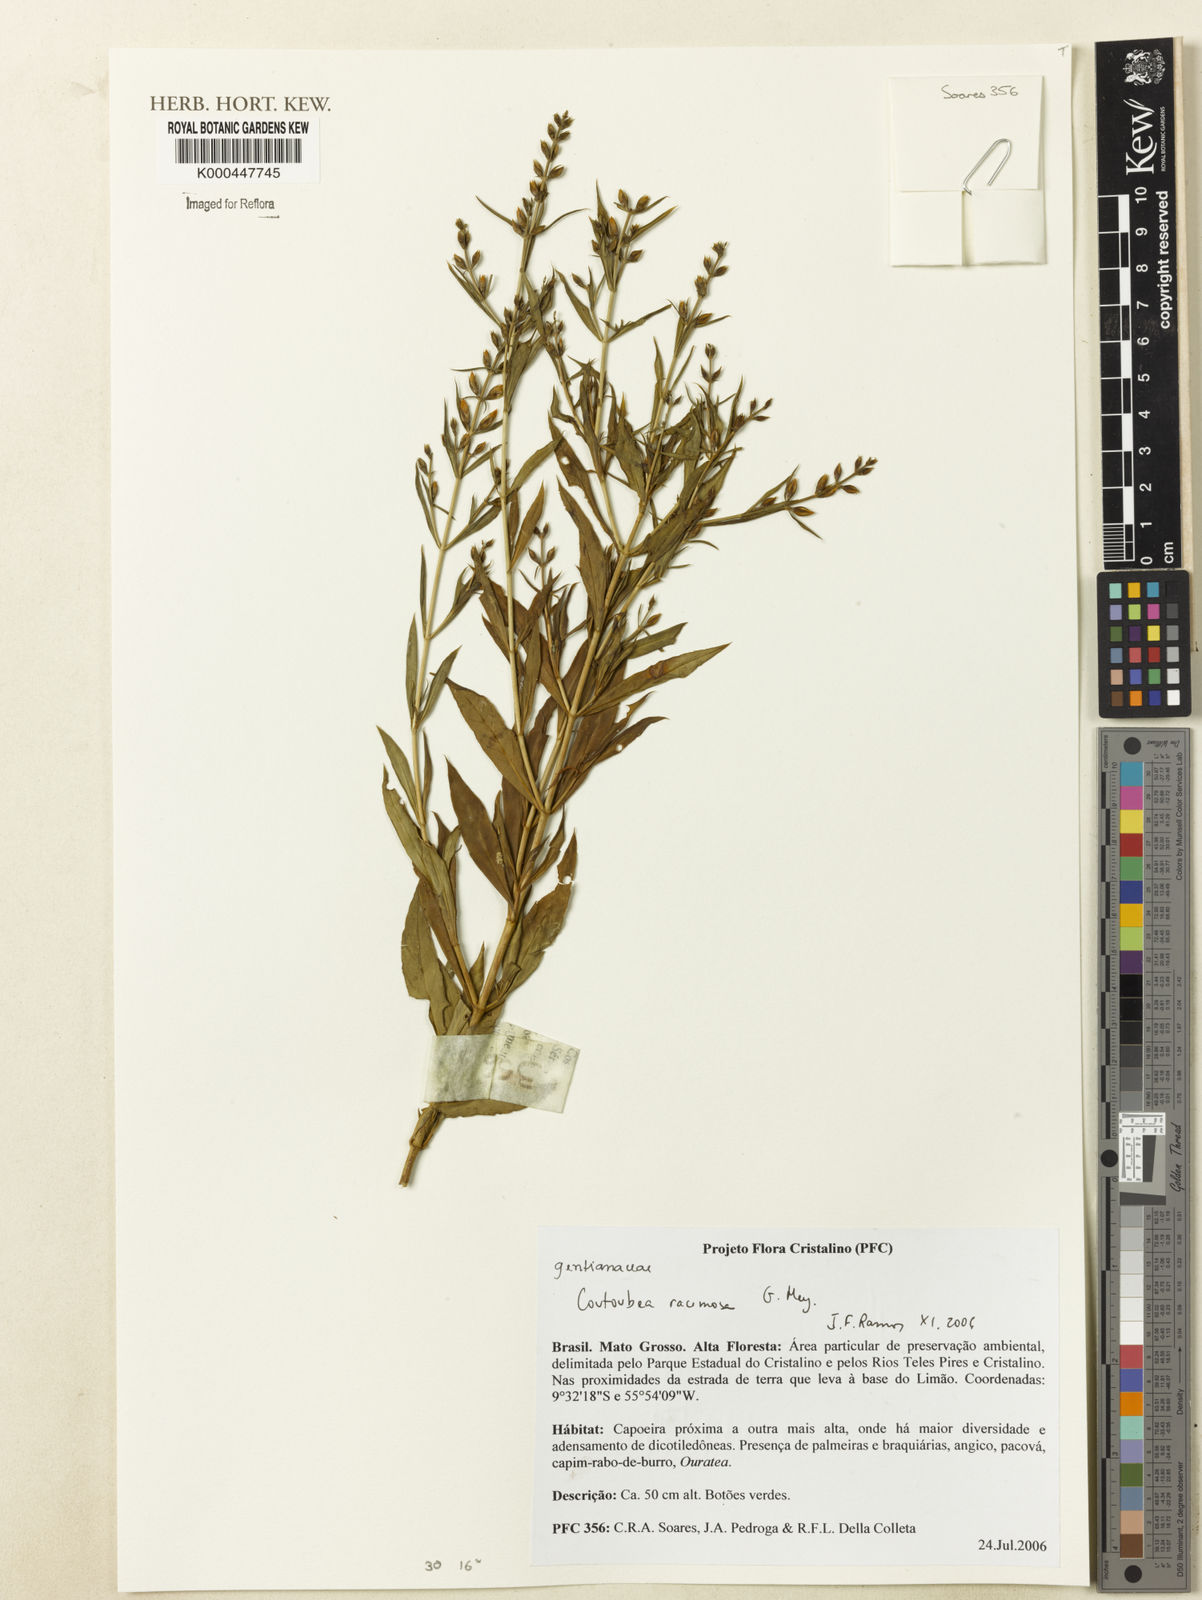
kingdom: Plantae
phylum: Tracheophyta
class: Magnoliopsida
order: Gentianales
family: Gentianaceae
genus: Coutoubea
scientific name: Coutoubea ramosa
